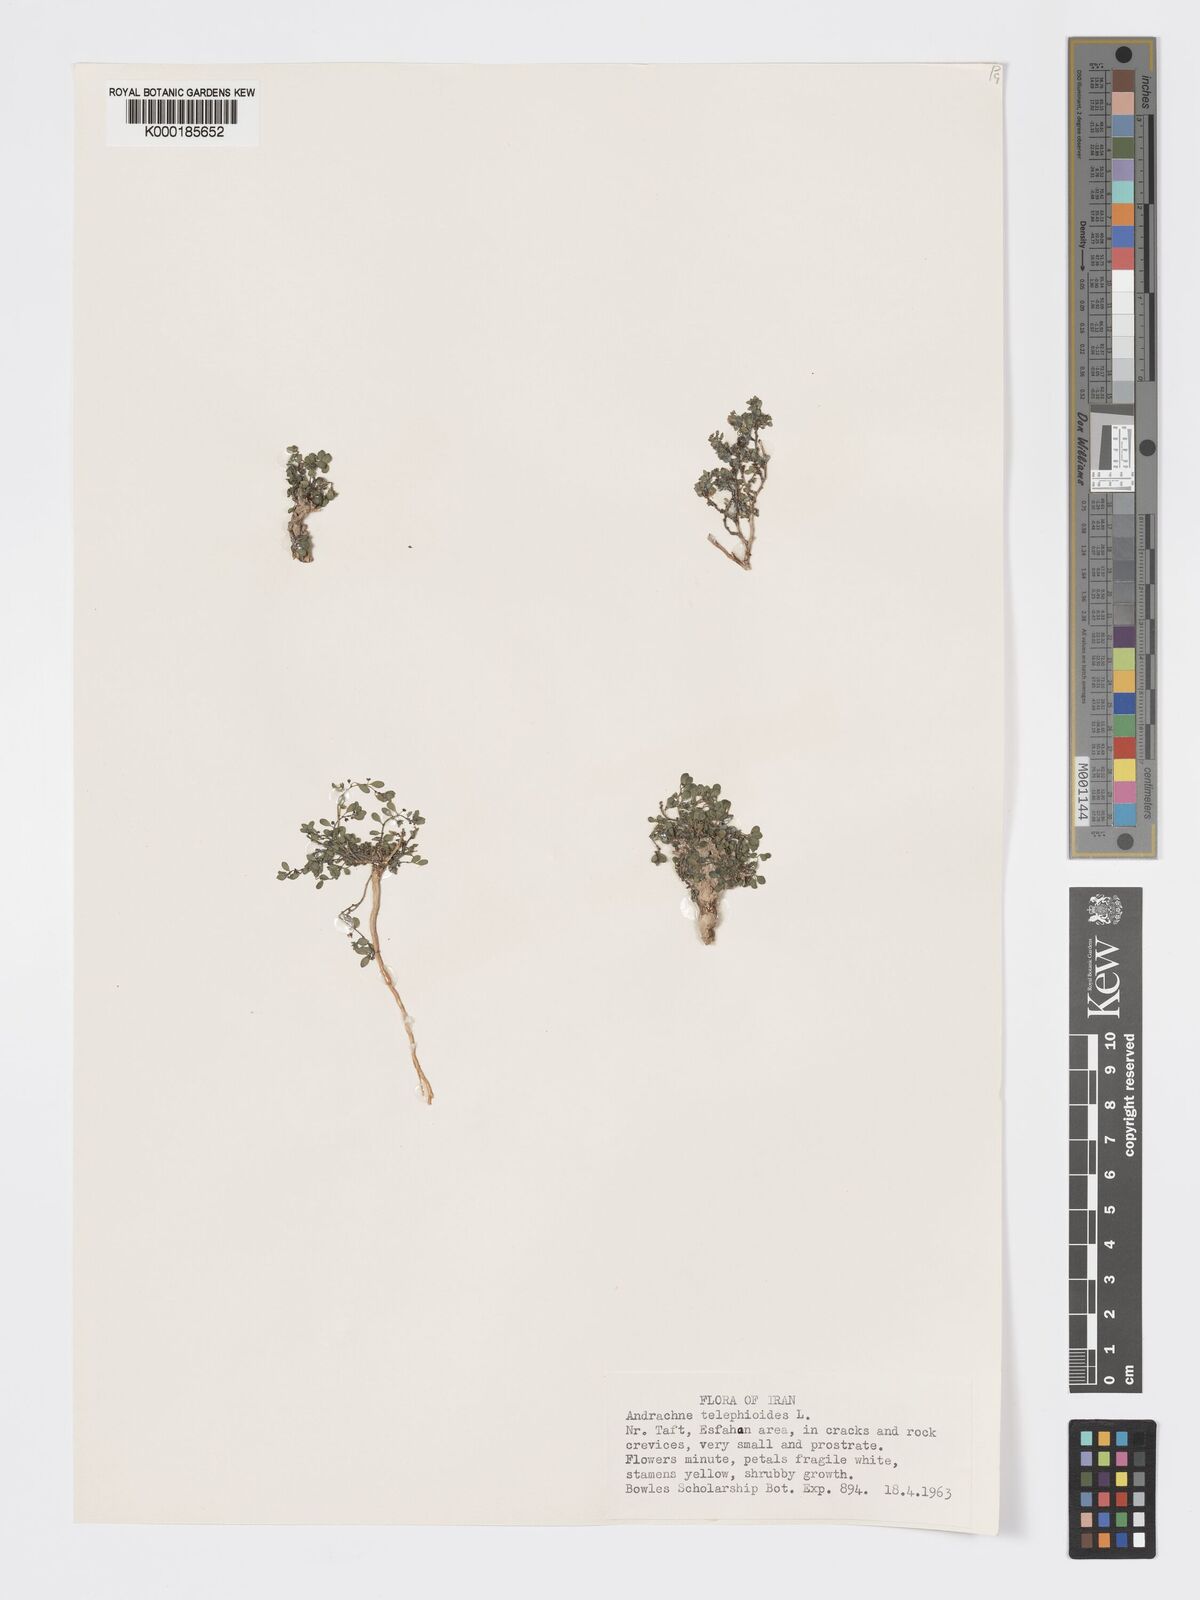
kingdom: Plantae
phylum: Tracheophyta
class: Magnoliopsida
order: Malpighiales
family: Phyllanthaceae
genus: Andrachne
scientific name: Andrachne telephioides
